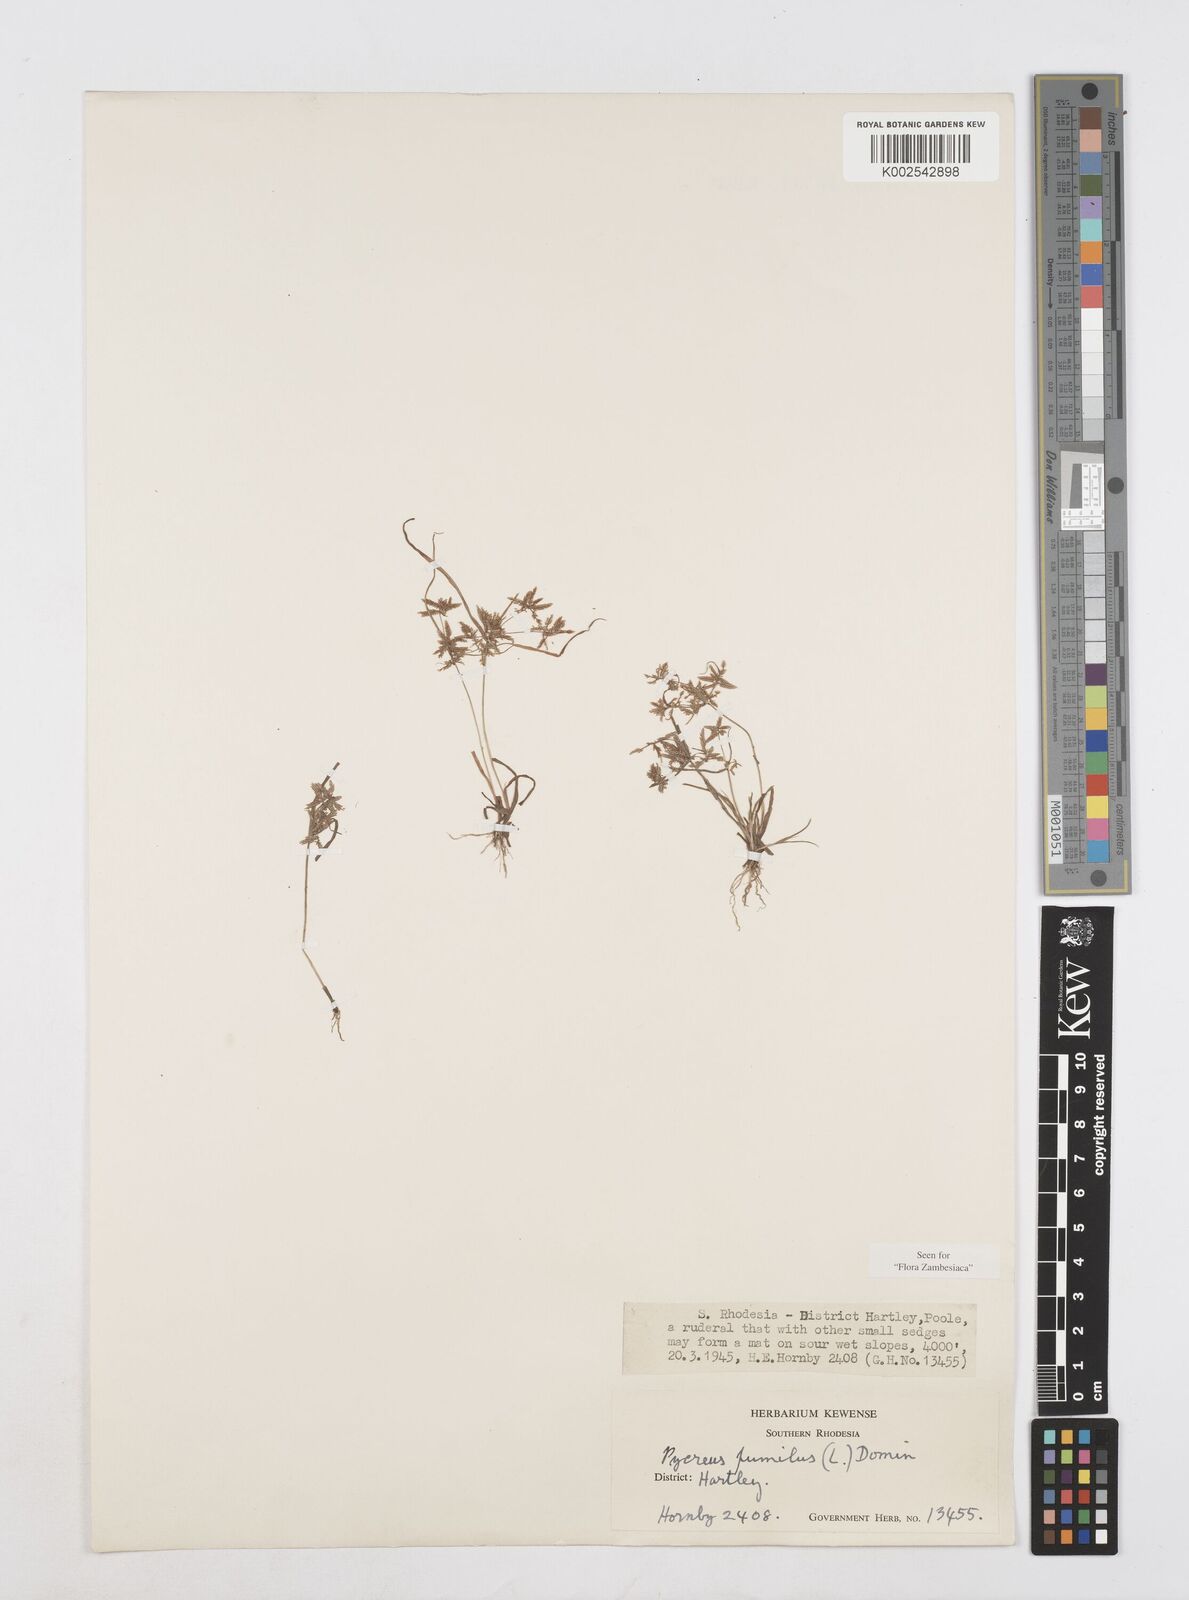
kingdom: Plantae
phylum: Tracheophyta
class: Liliopsida
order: Poales
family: Cyperaceae
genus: Cyperus
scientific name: Cyperus pumilus
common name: Low flatsedge
